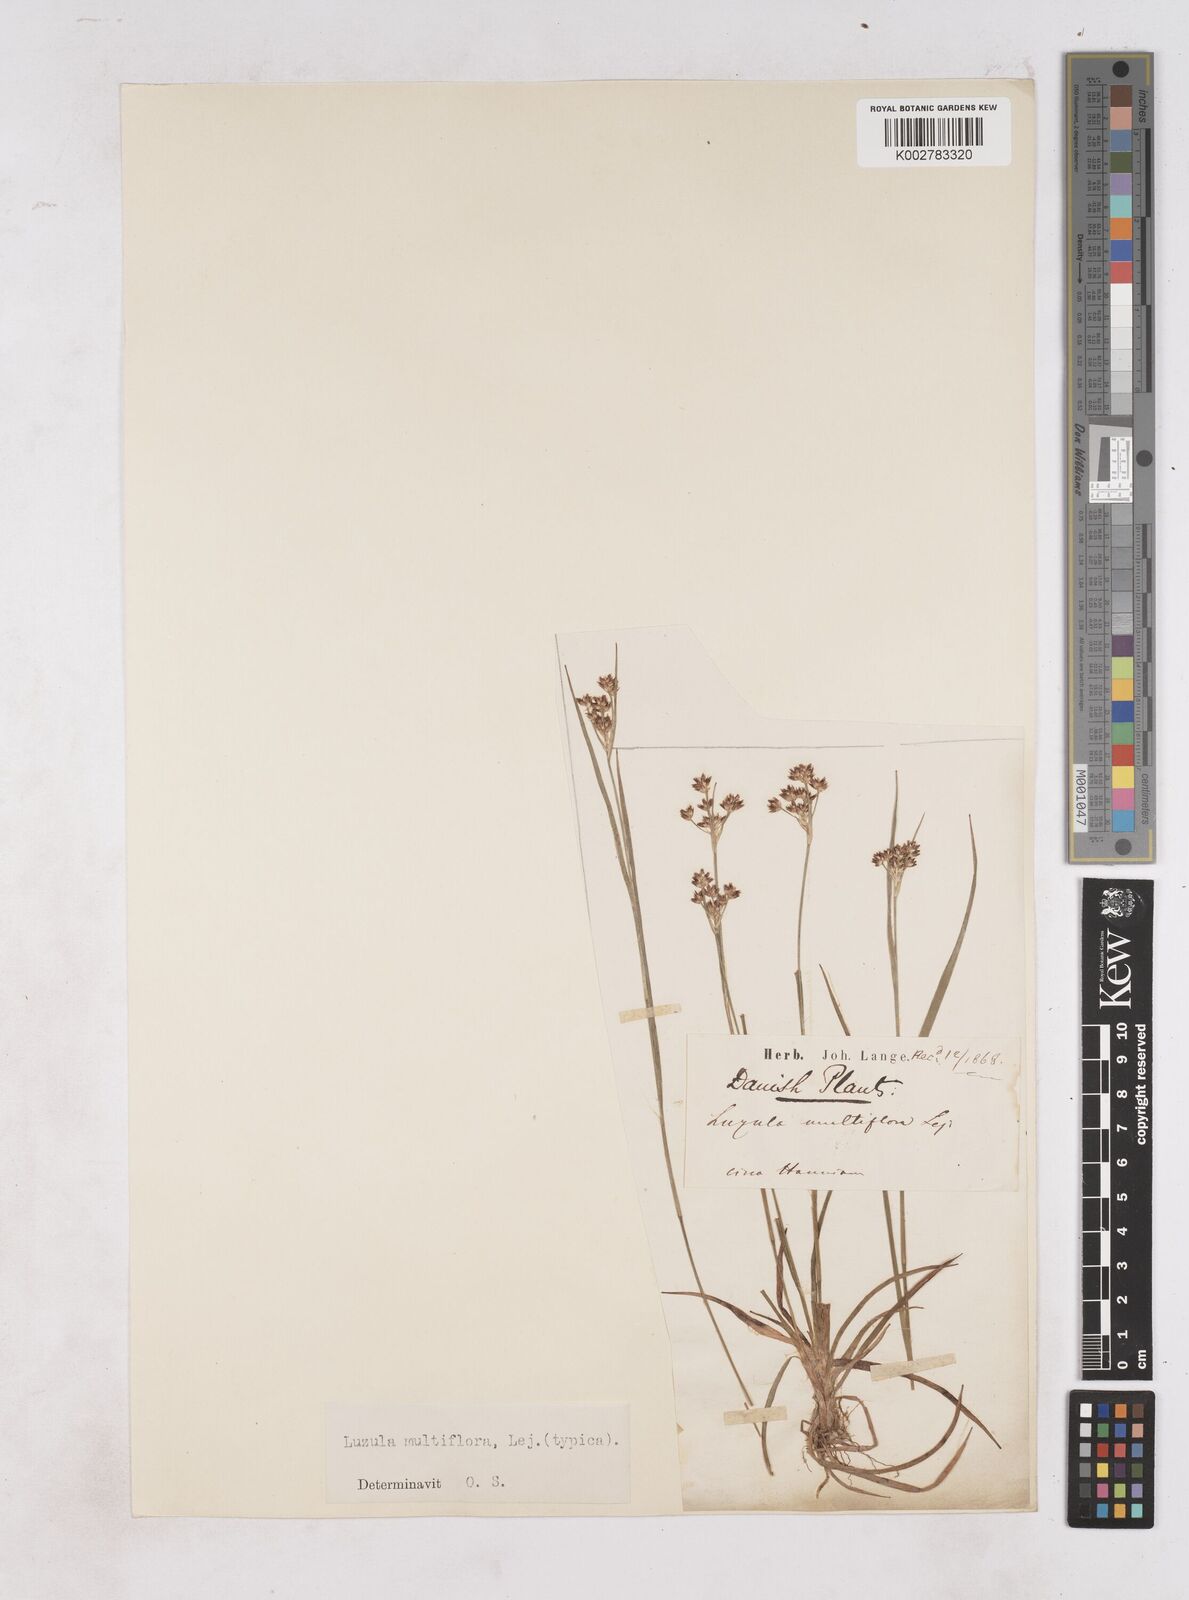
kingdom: Plantae
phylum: Tracheophyta
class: Liliopsida
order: Poales
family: Juncaceae
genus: Luzula
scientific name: Luzula multiflora
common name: Heath wood-rush
